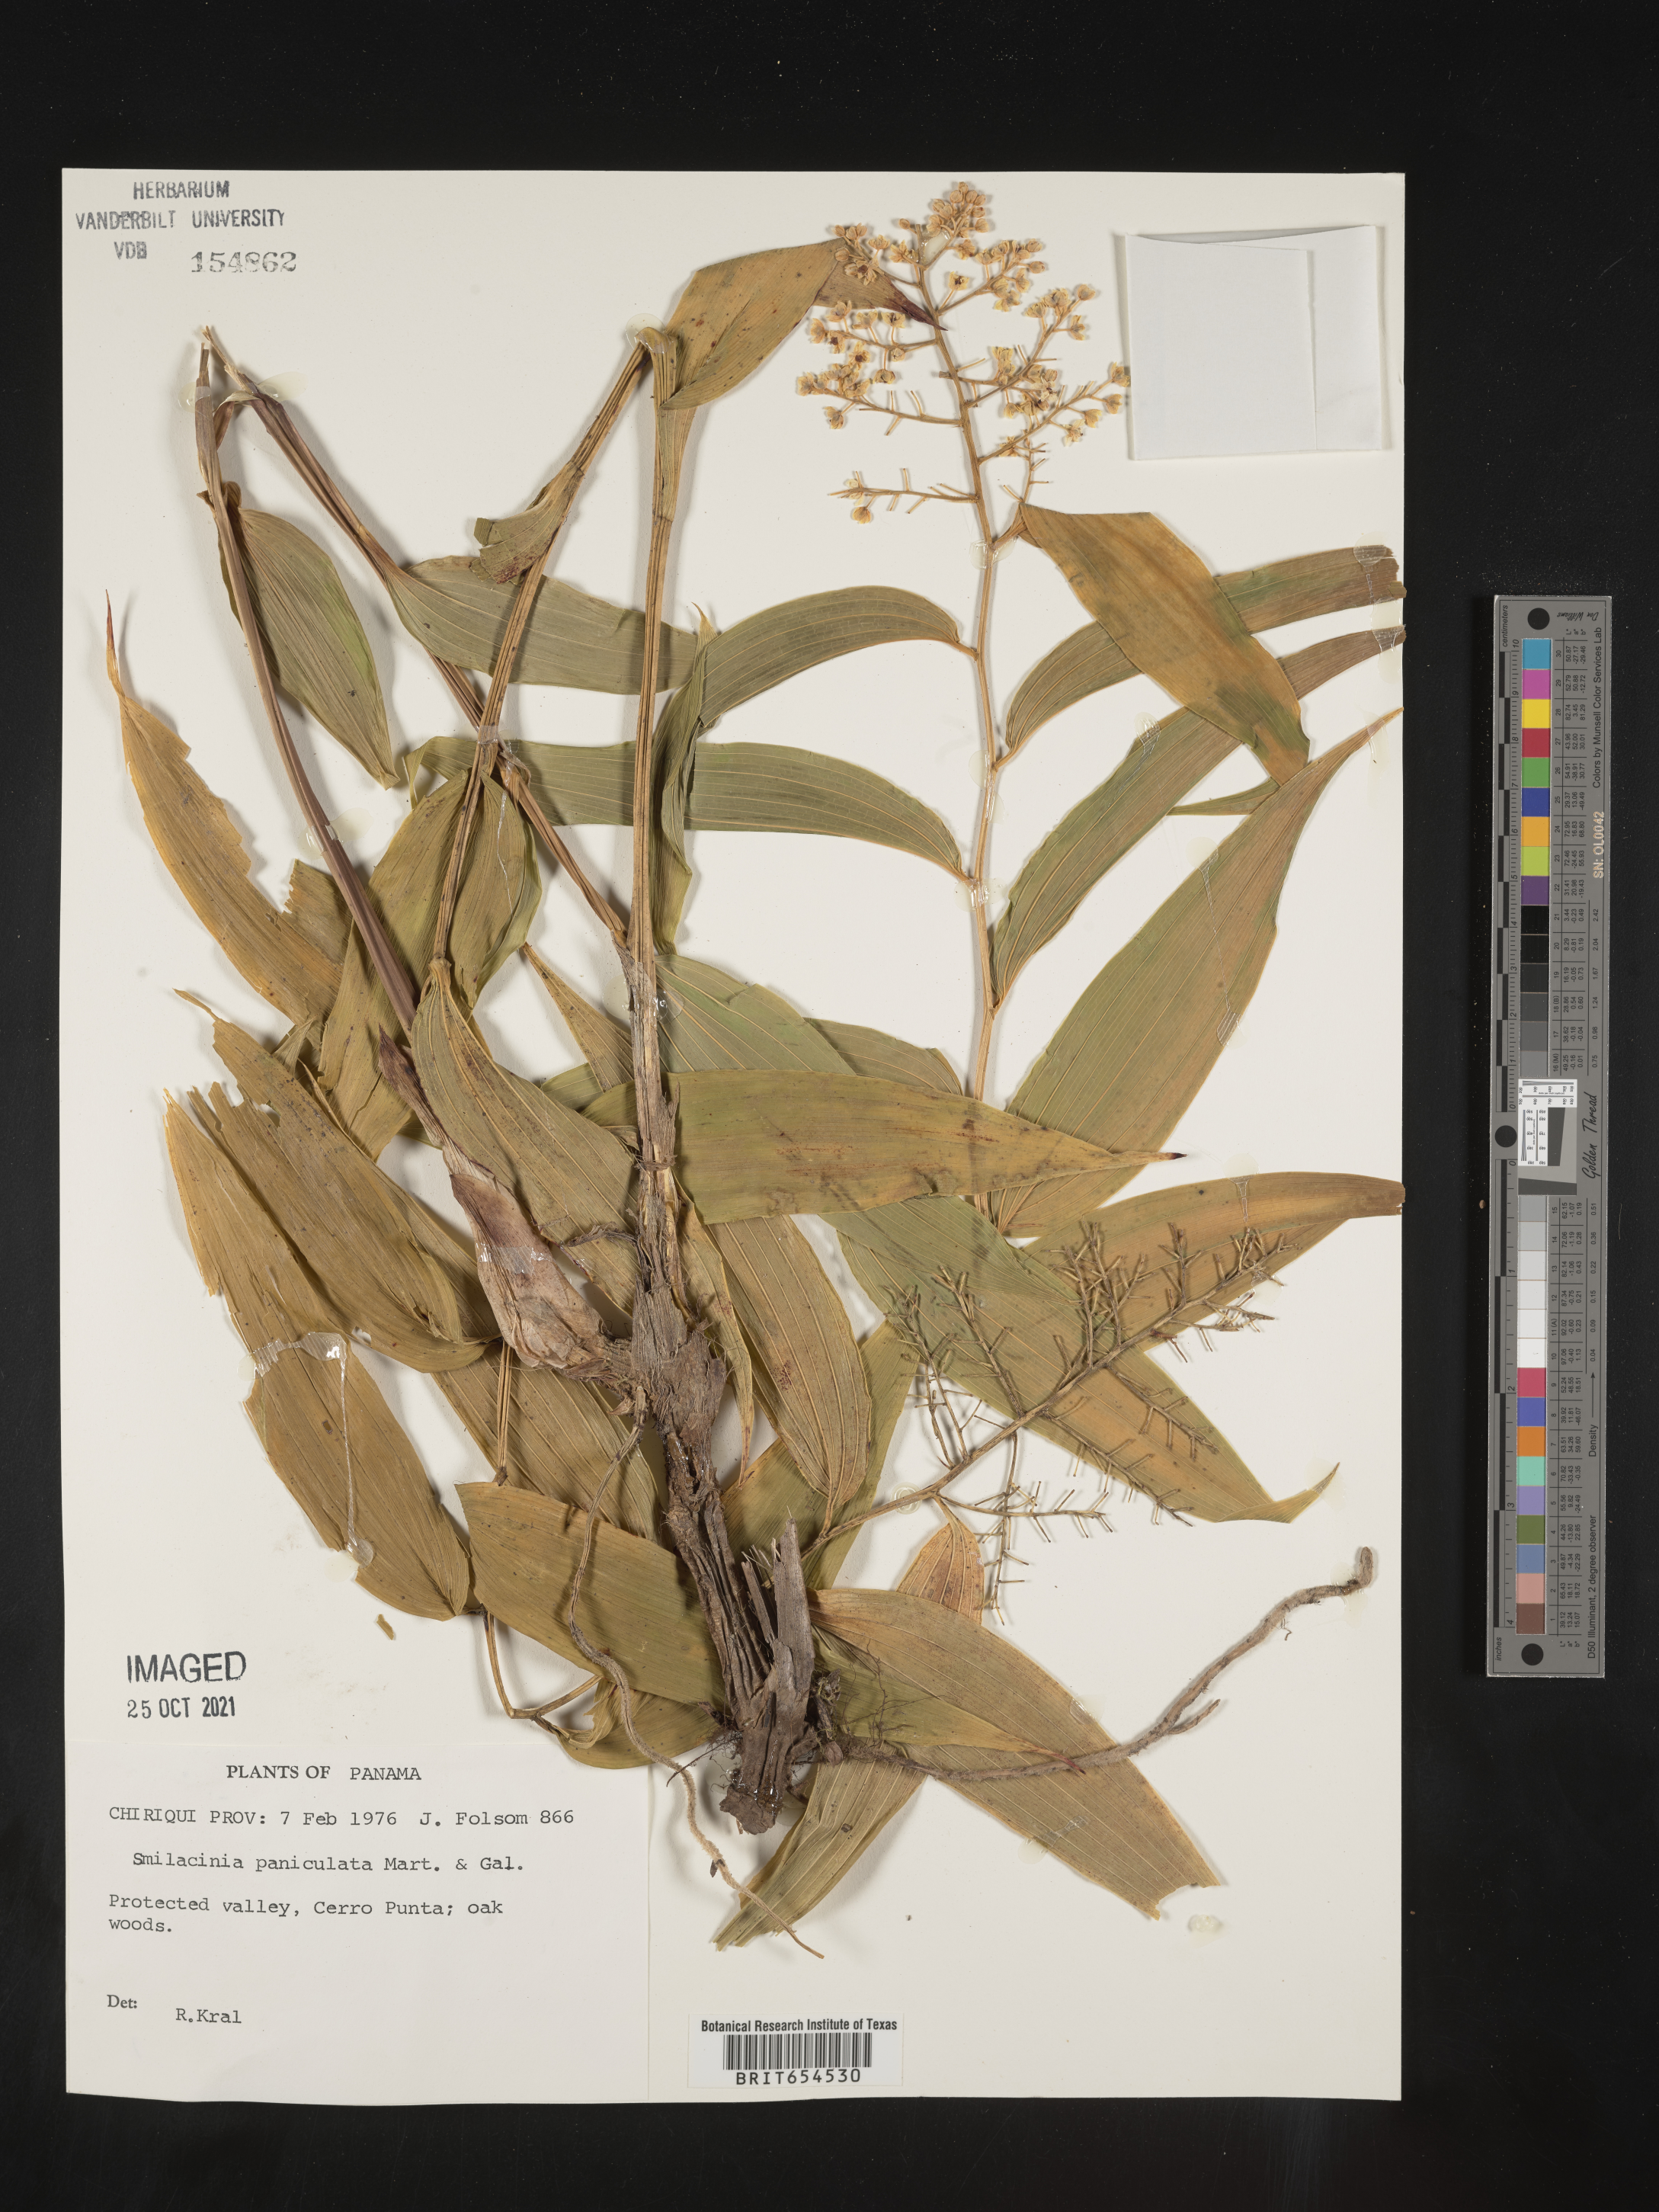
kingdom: Plantae
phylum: Tracheophyta
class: Liliopsida
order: Asparagales
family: Asparagaceae
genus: Maianthemum
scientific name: Maianthemum tatsienense
